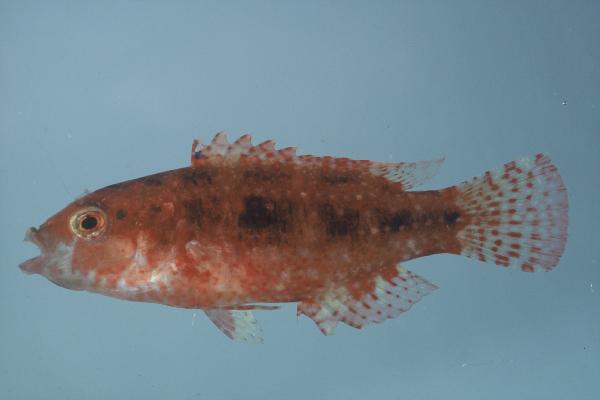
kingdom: Animalia
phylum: Chordata
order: Perciformes
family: Labridae
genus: Oxycheilinus
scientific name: Oxycheilinus bimaculatus
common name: Comettailed wrasse
